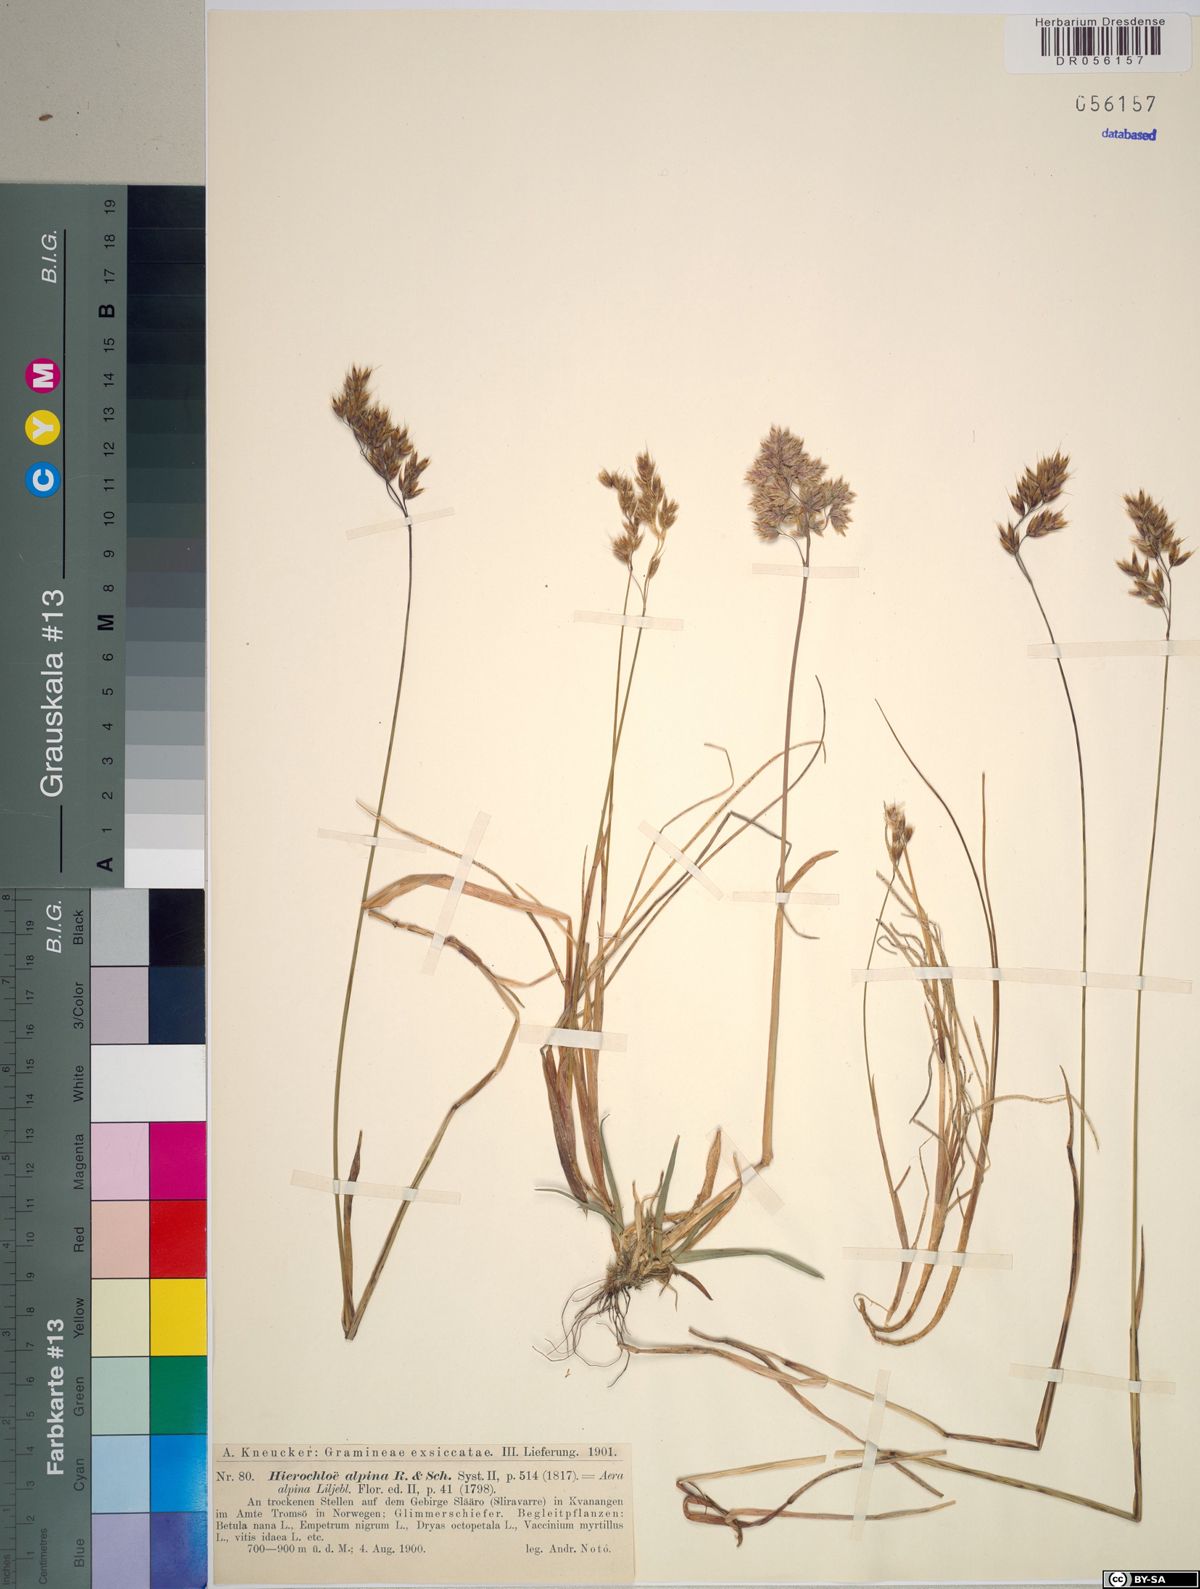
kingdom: Plantae
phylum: Tracheophyta
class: Liliopsida
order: Poales
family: Poaceae
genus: Anthoxanthum
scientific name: Anthoxanthum monticola
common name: Alpine sweetgrass
